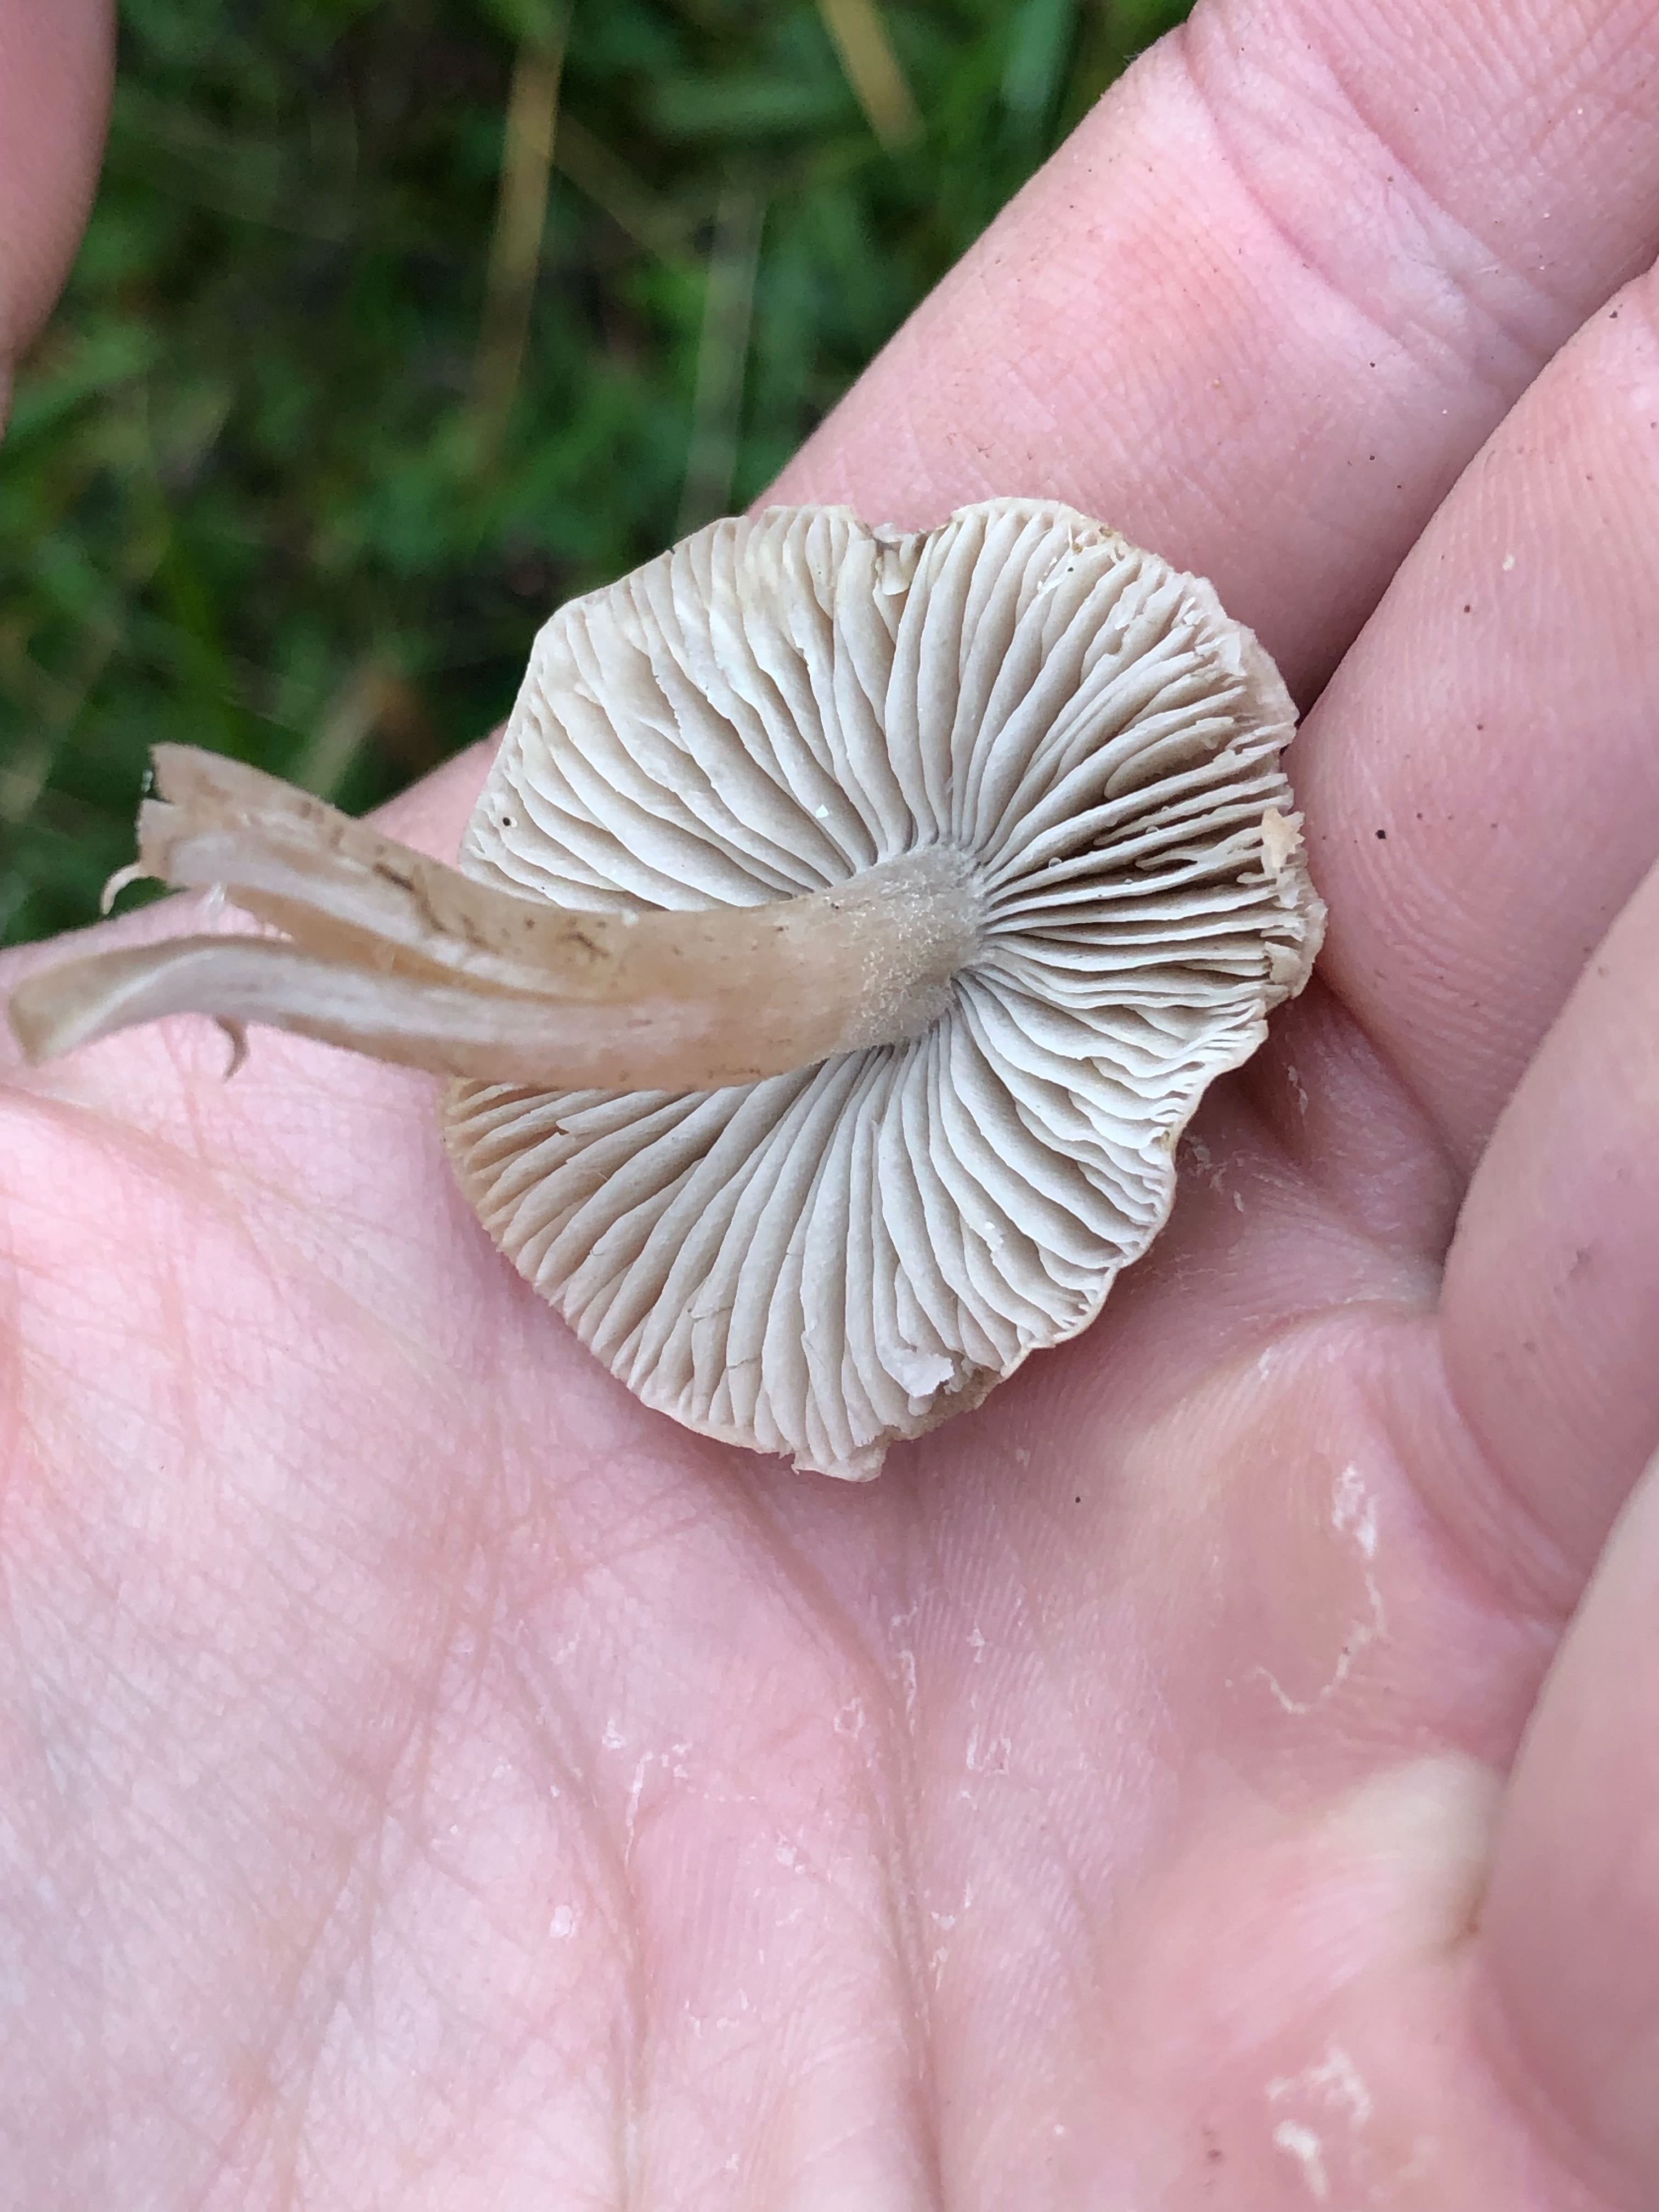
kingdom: Fungi
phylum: Basidiomycota
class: Agaricomycetes
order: Agaricales
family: Tricholomataceae
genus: Dermoloma
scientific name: Dermoloma cuneifolium
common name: eng-nonnehat
